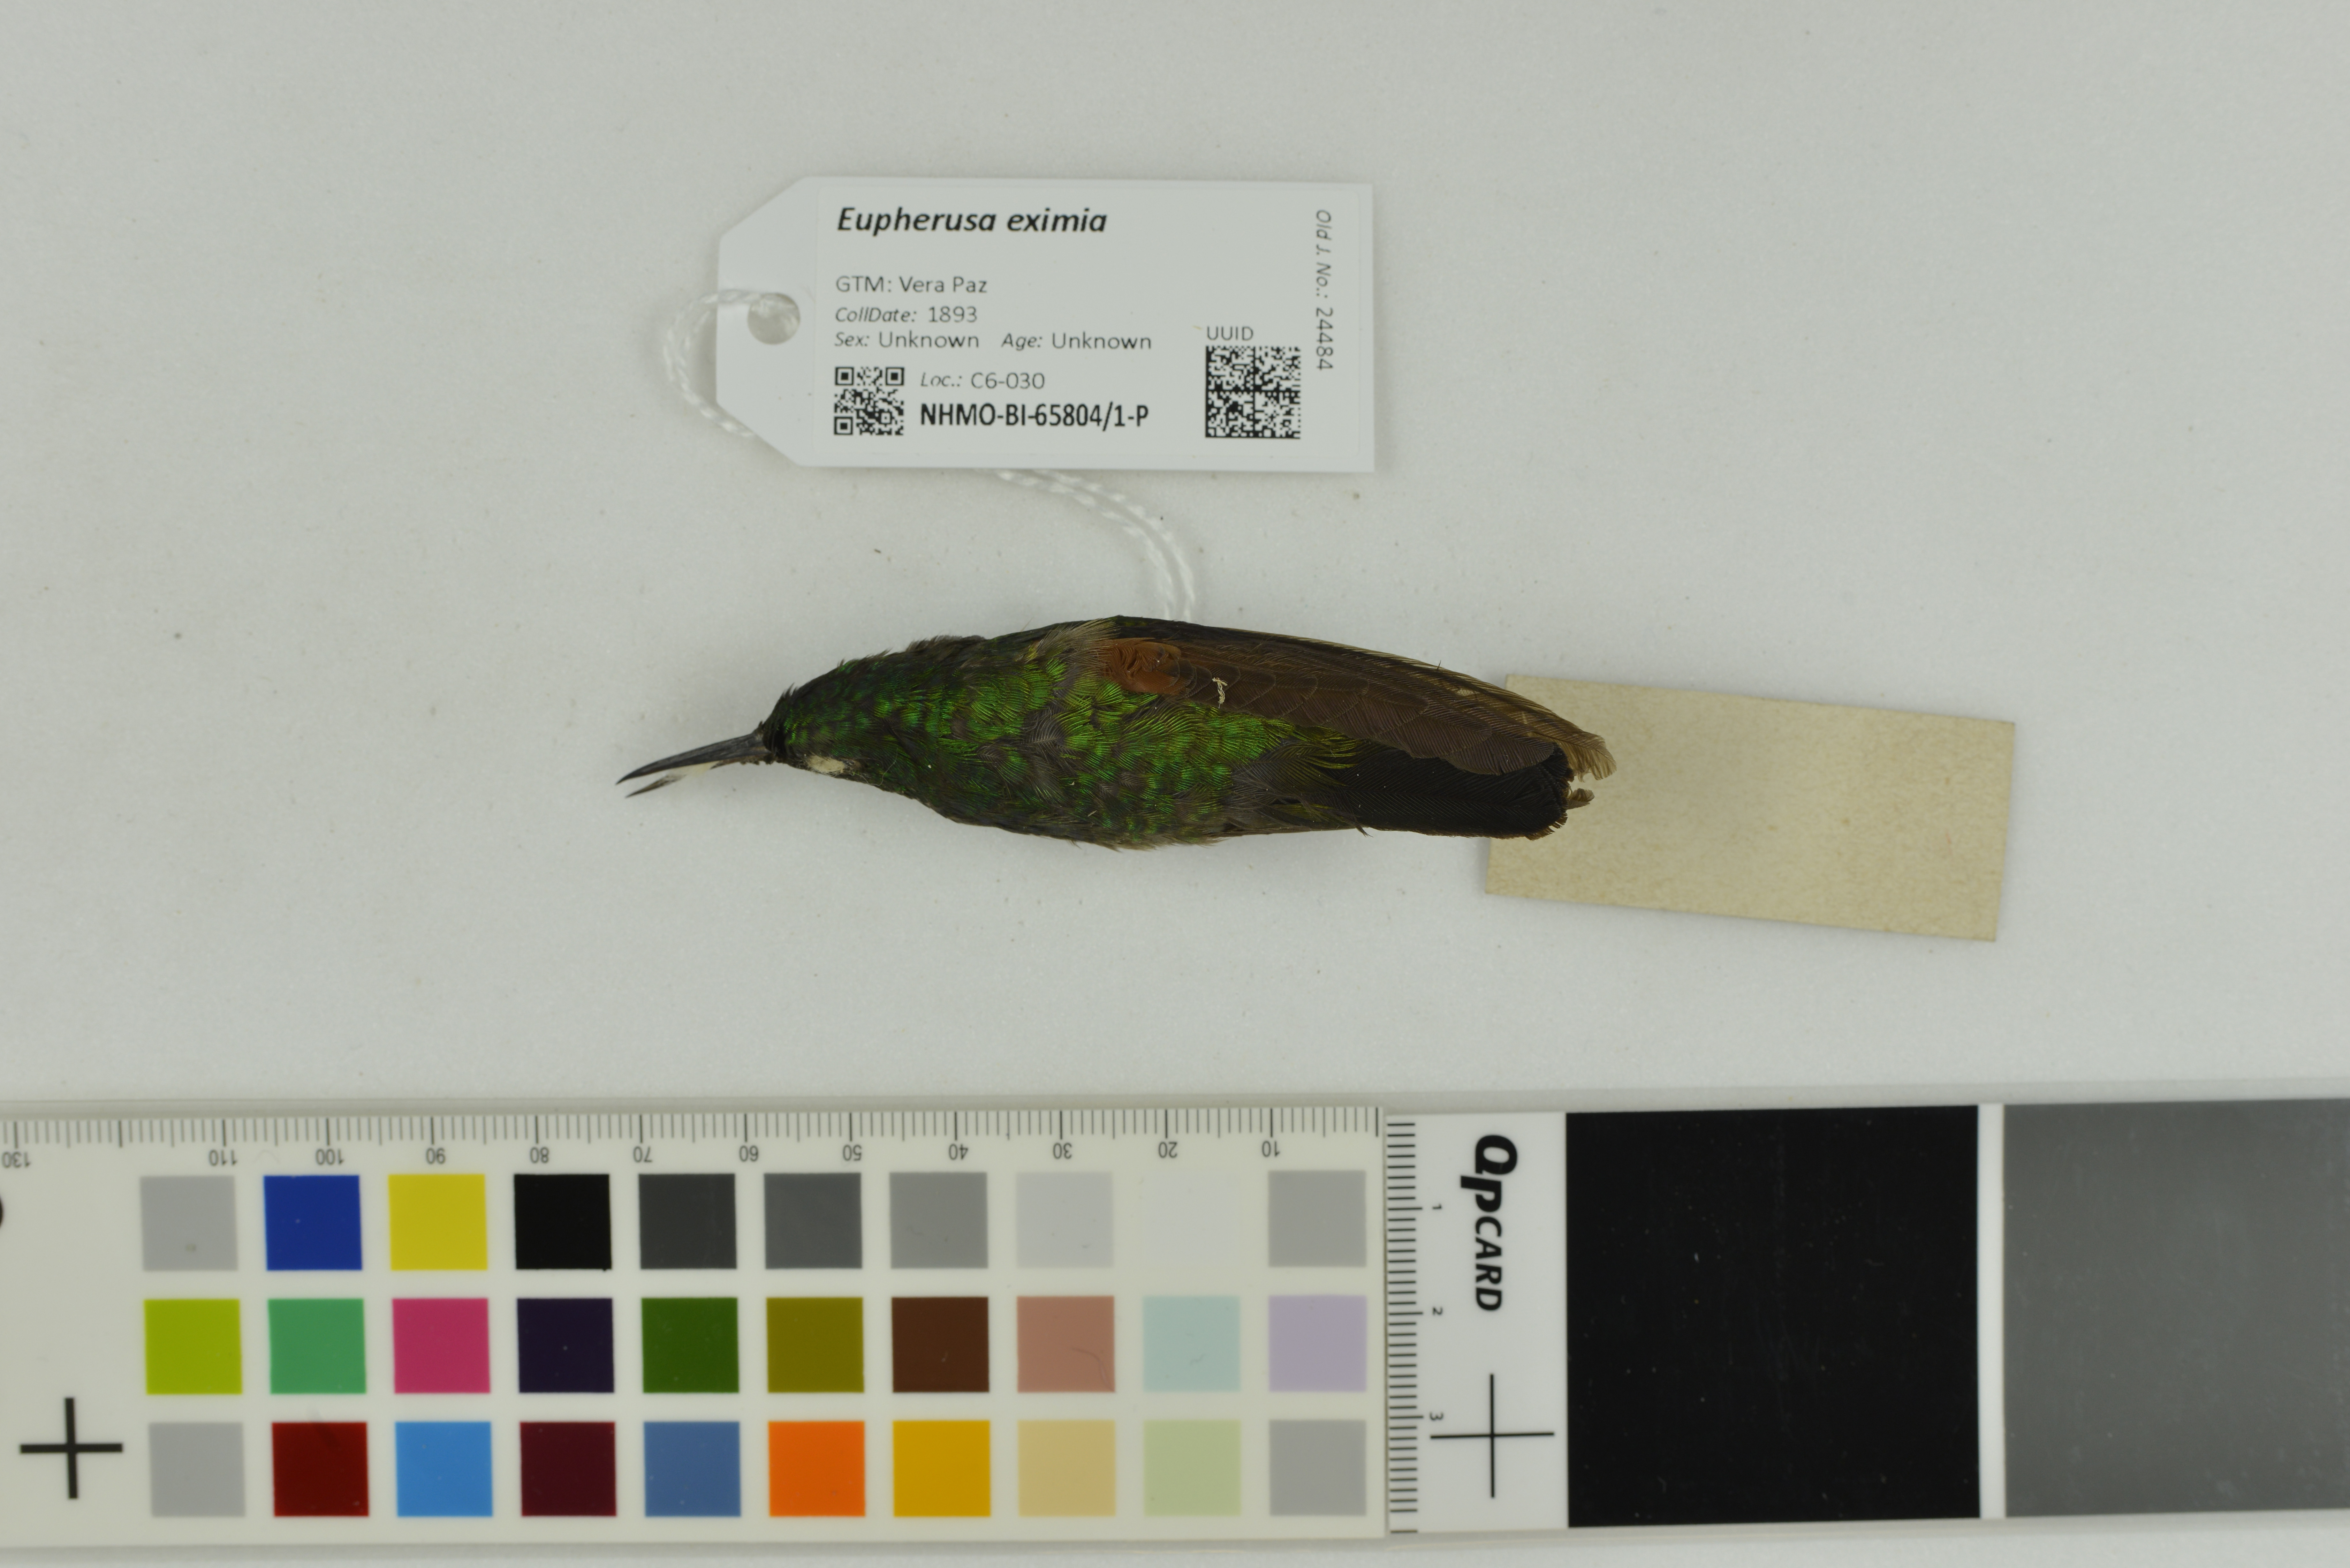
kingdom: Animalia
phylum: Chordata
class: Aves
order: Apodiformes
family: Trochilidae
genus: Eupherusa
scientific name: Eupherusa eximia
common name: Stripe-tailed hummingbird
